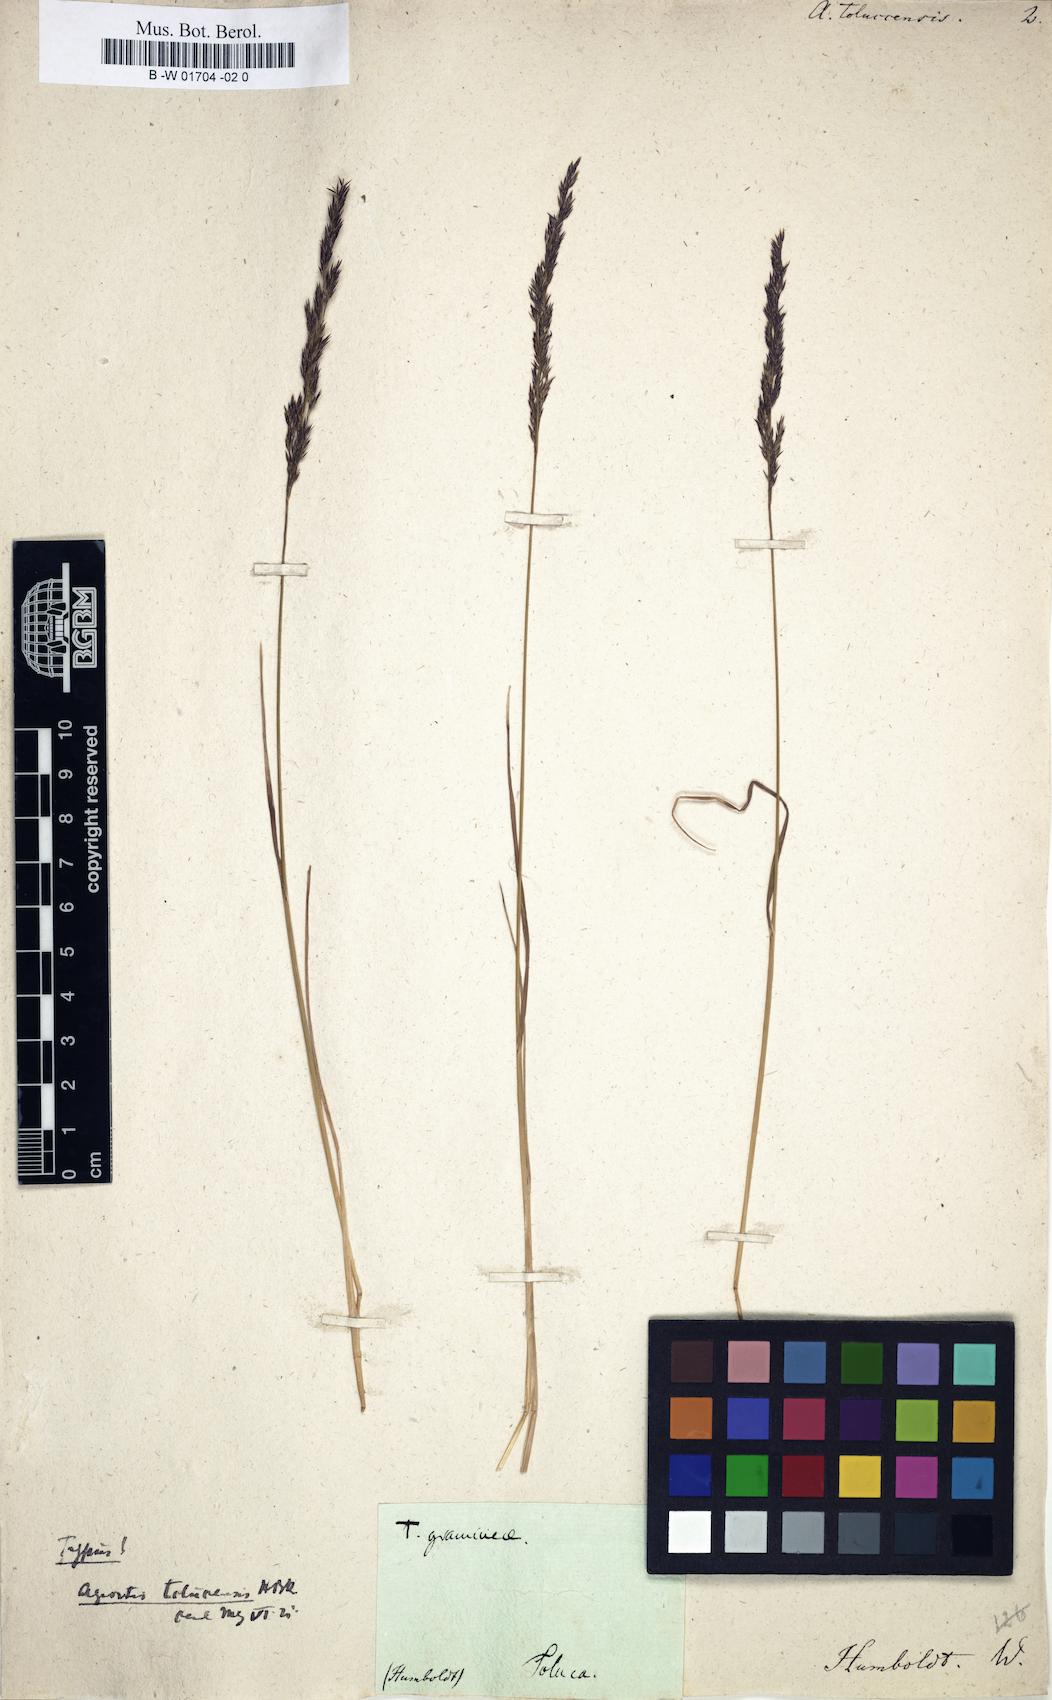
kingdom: Plantae
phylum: Tracheophyta
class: Liliopsida
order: Poales
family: Poaceae
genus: Agrostis
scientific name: Agrostis tolucensis
